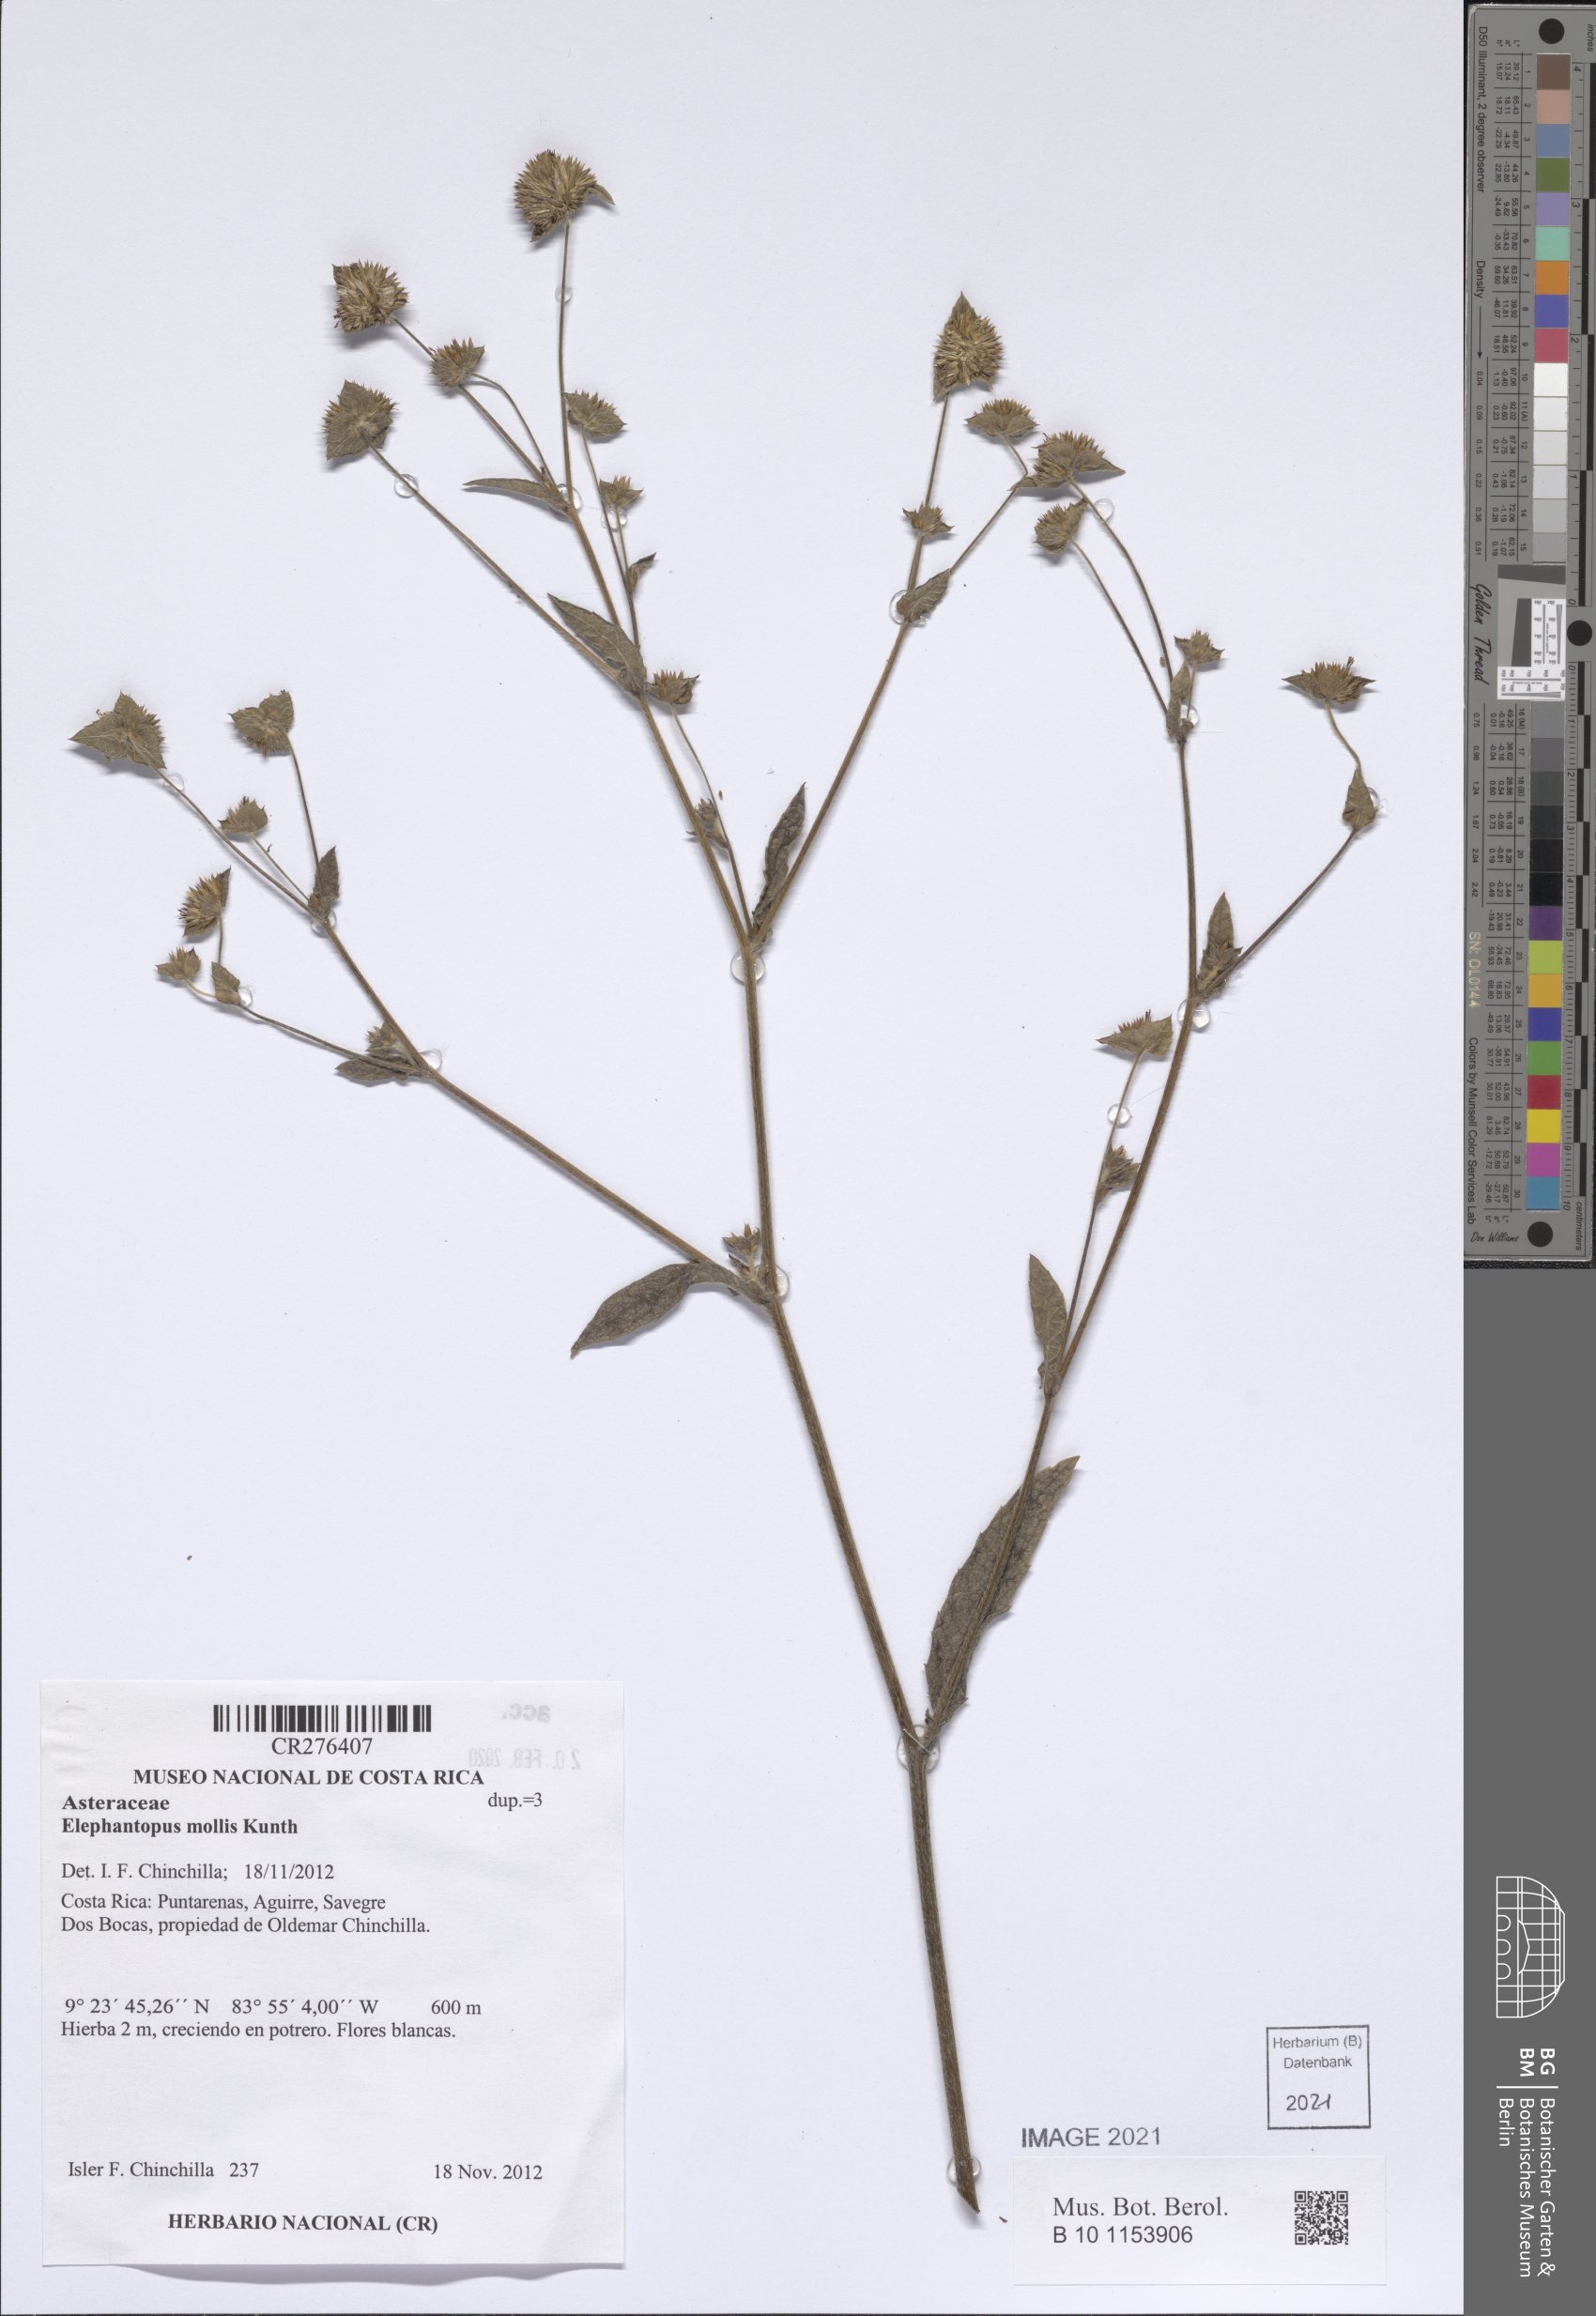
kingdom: Plantae
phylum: Tracheophyta
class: Magnoliopsida
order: Asterales
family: Asteraceae
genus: Elephantopus
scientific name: Elephantopus mollis
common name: Soft elephantsfoot
